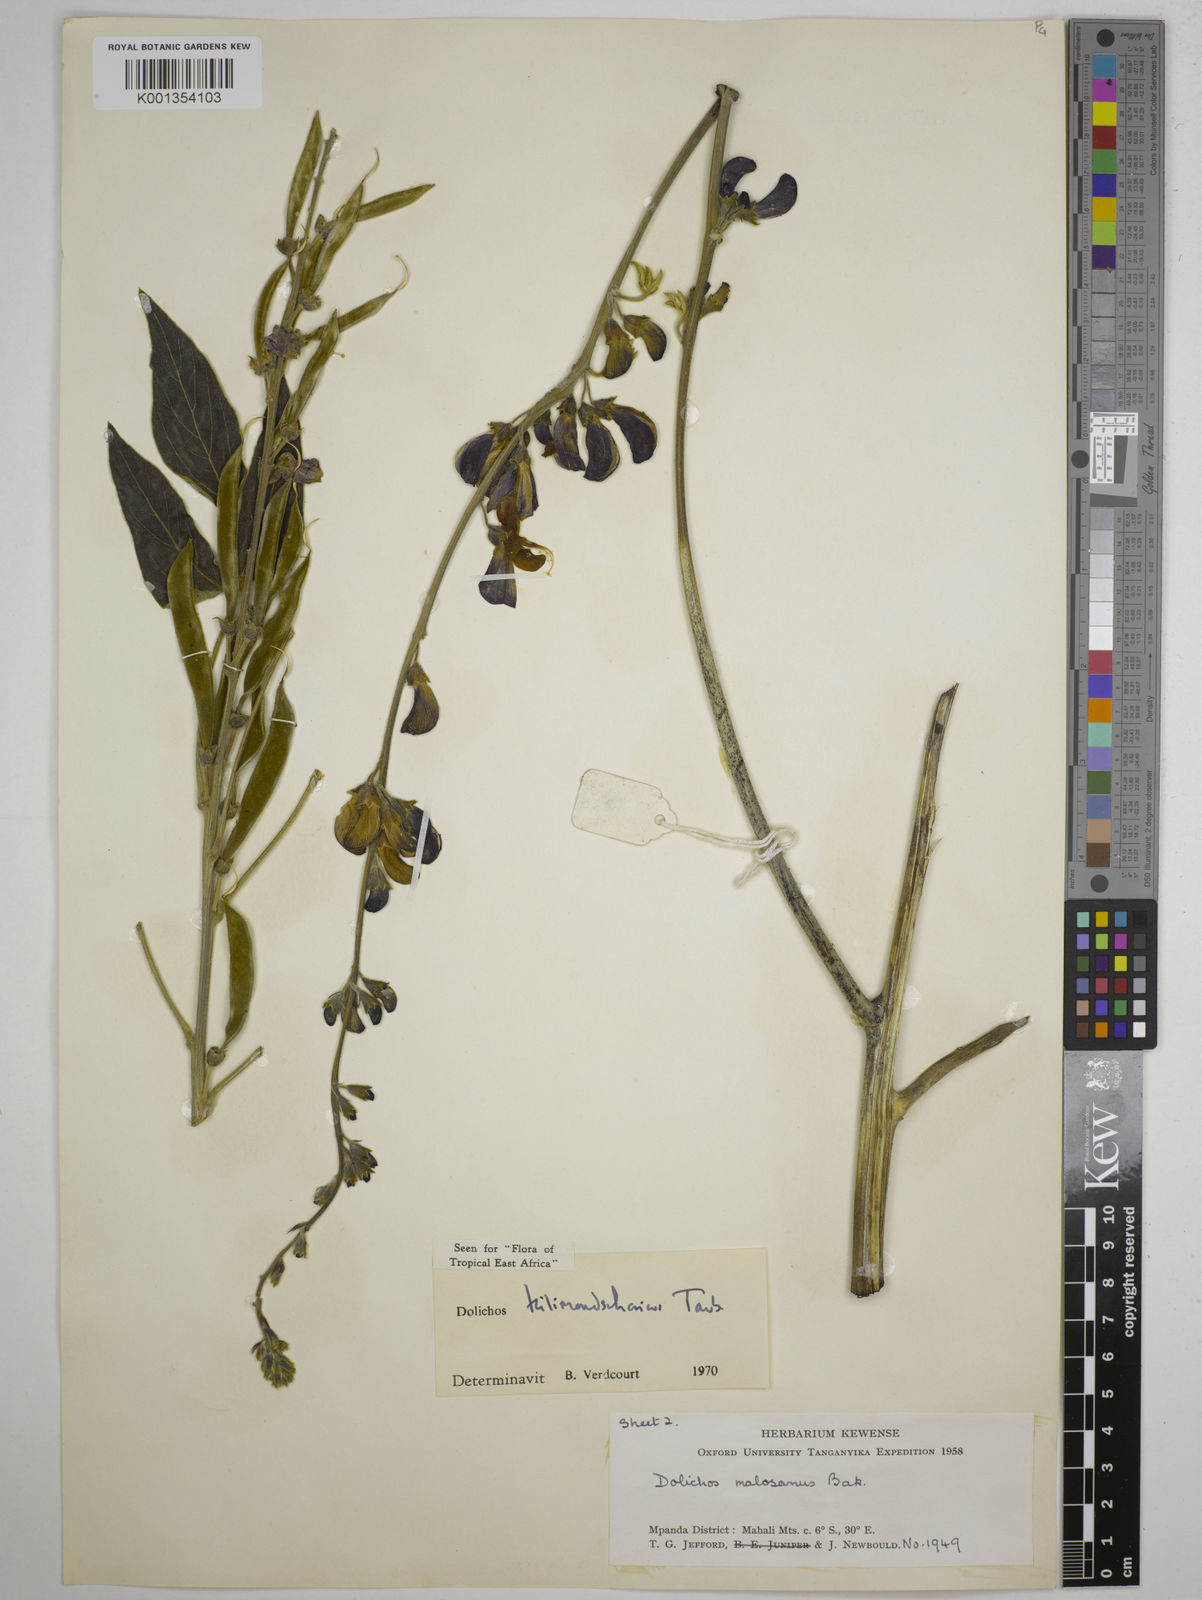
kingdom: Plantae
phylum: Tracheophyta
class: Magnoliopsida
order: Fabales
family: Fabaceae
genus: Dolichos
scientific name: Dolichos kilimandscharicus
